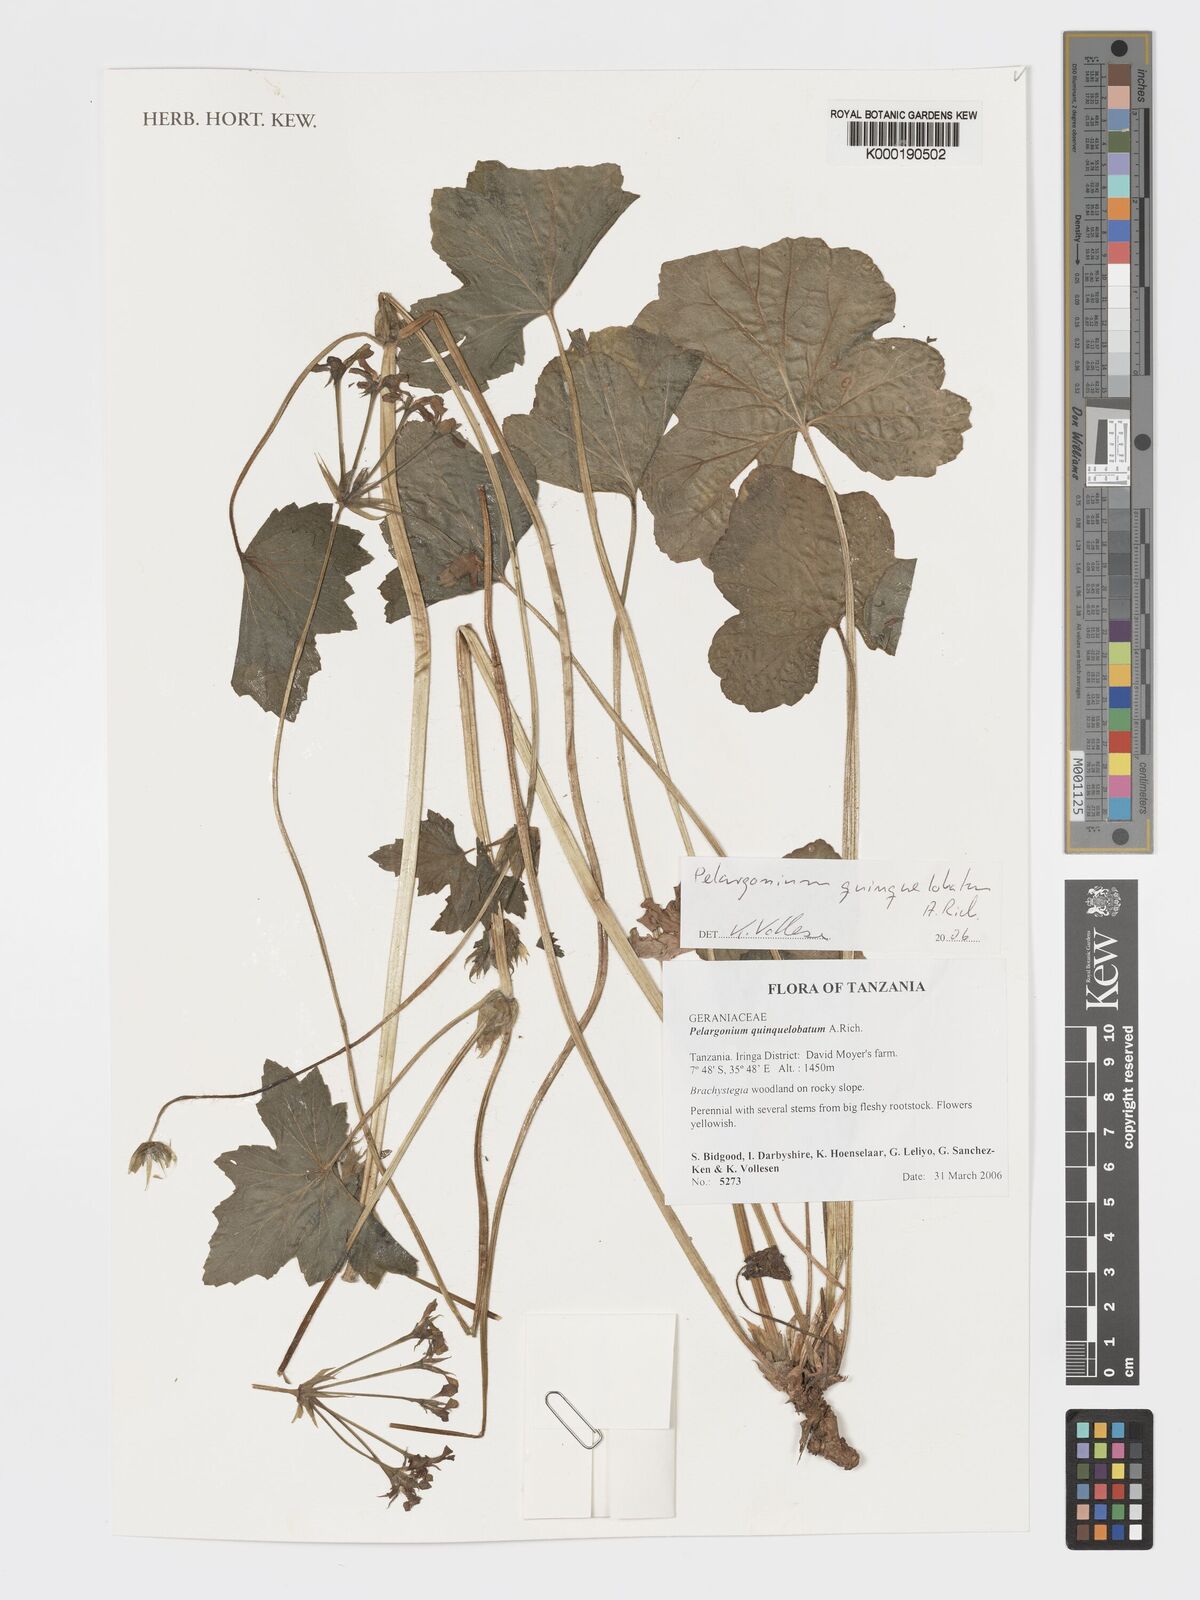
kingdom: Plantae
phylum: Tracheophyta
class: Magnoliopsida
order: Geraniales
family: Geraniaceae
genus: Pelargonium
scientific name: Pelargonium quinquelobatum
